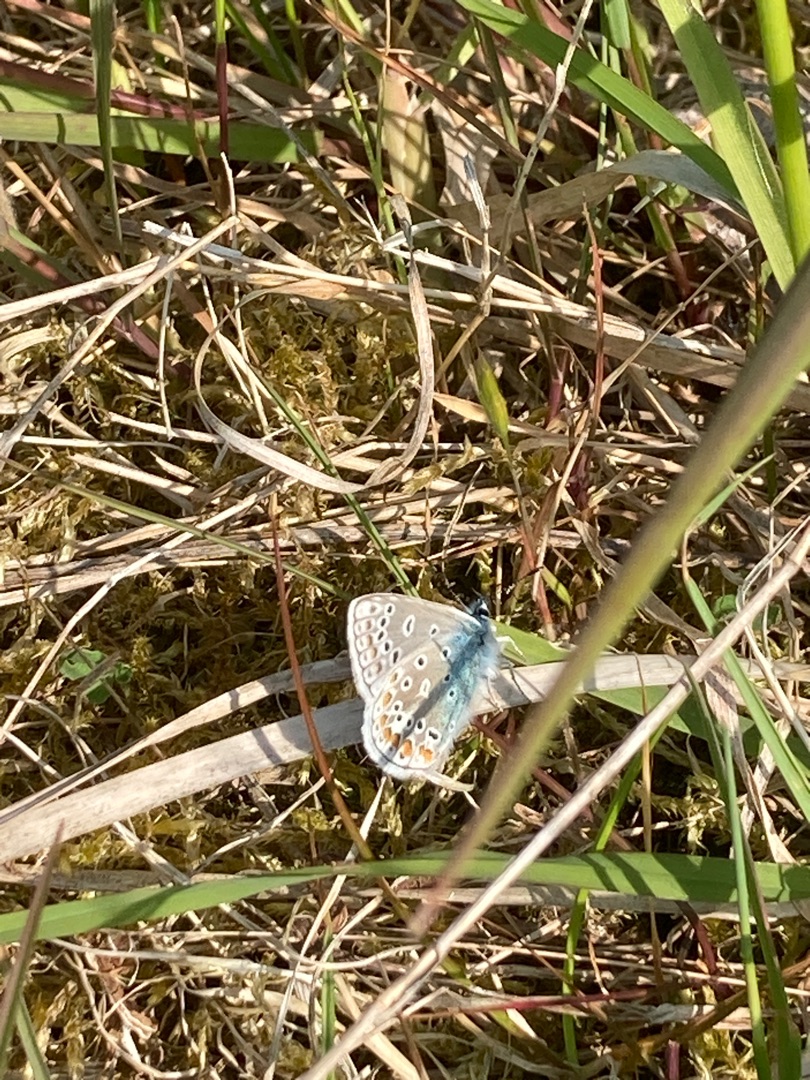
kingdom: Animalia
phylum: Arthropoda
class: Insecta
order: Lepidoptera
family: Lycaenidae
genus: Polyommatus
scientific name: Polyommatus icarus
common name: Almindelig blåfugl
